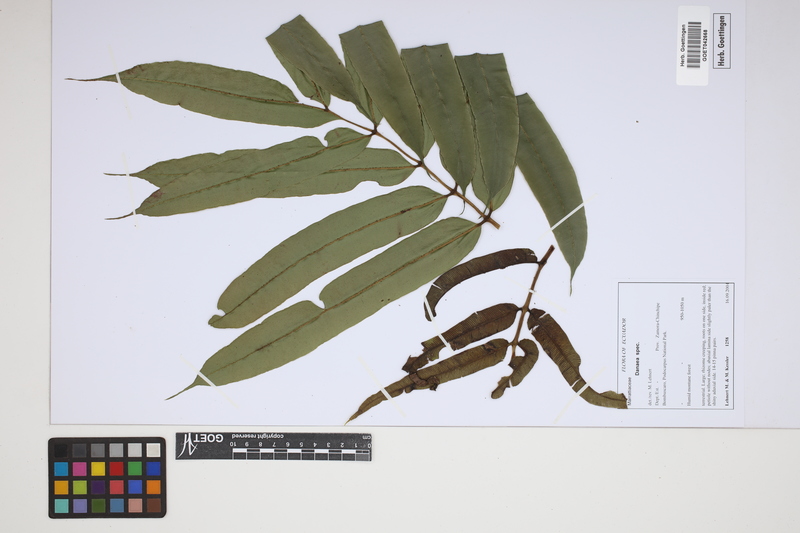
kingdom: Plantae
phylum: Tracheophyta
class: Polypodiopsida
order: Marattiales
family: Marattiaceae
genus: Danaea
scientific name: Danaea
